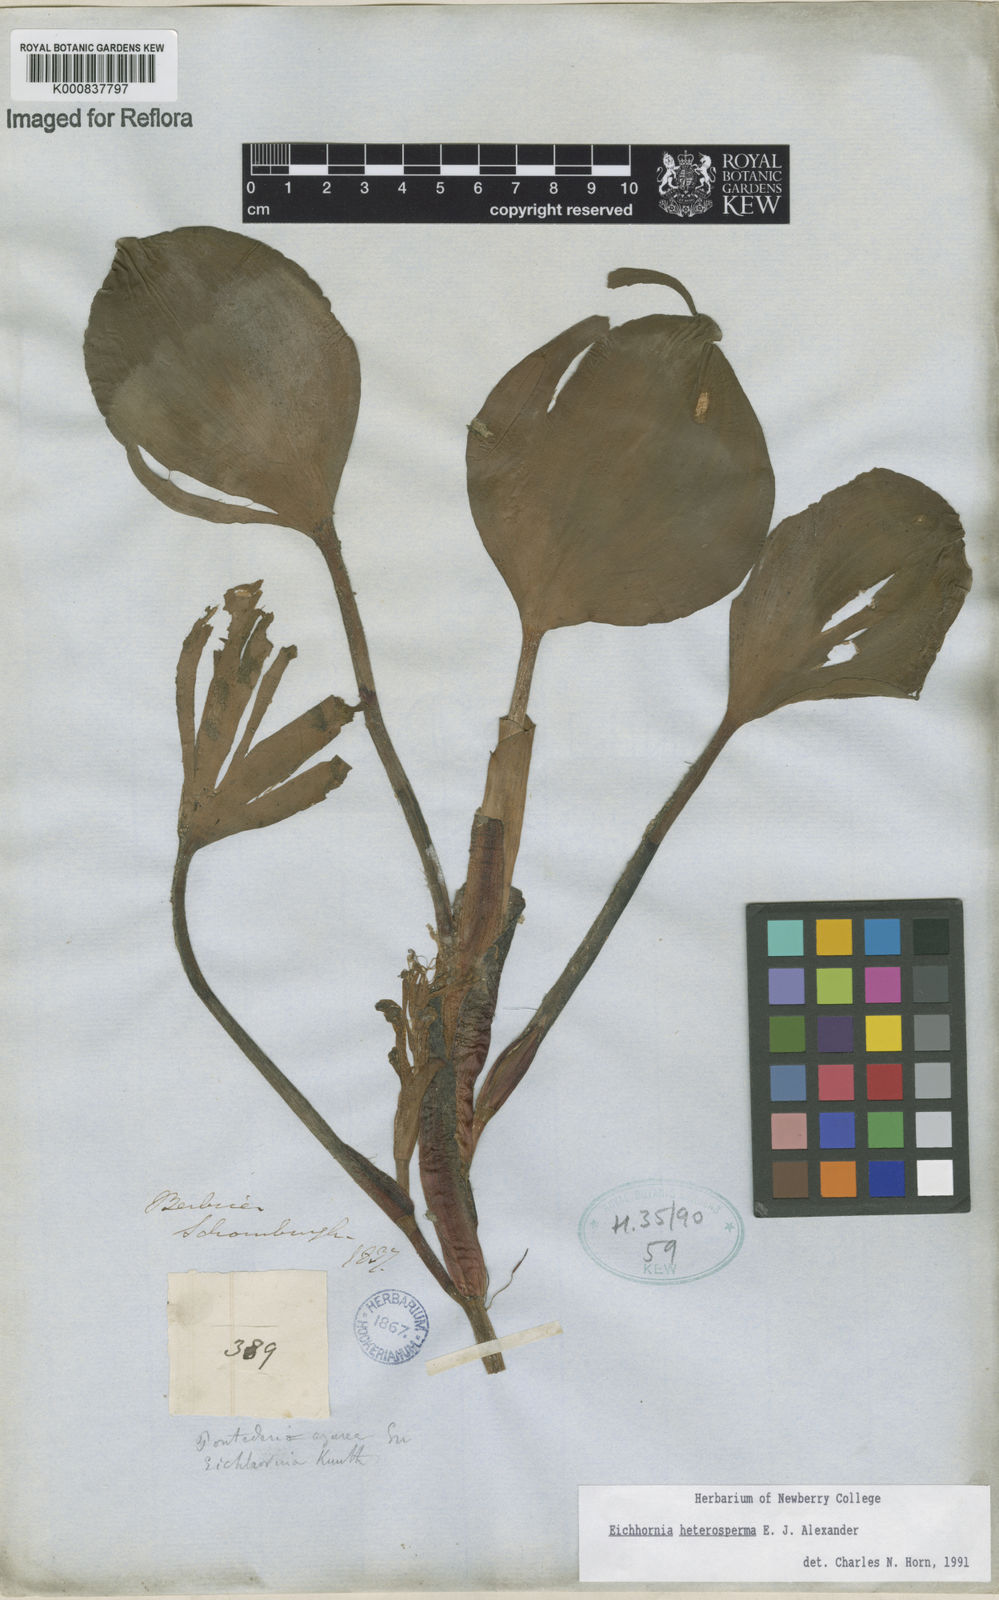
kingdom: Plantae
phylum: Tracheophyta
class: Liliopsida
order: Commelinales
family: Pontederiaceae
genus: Pontederia
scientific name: Pontederia heterosperma
